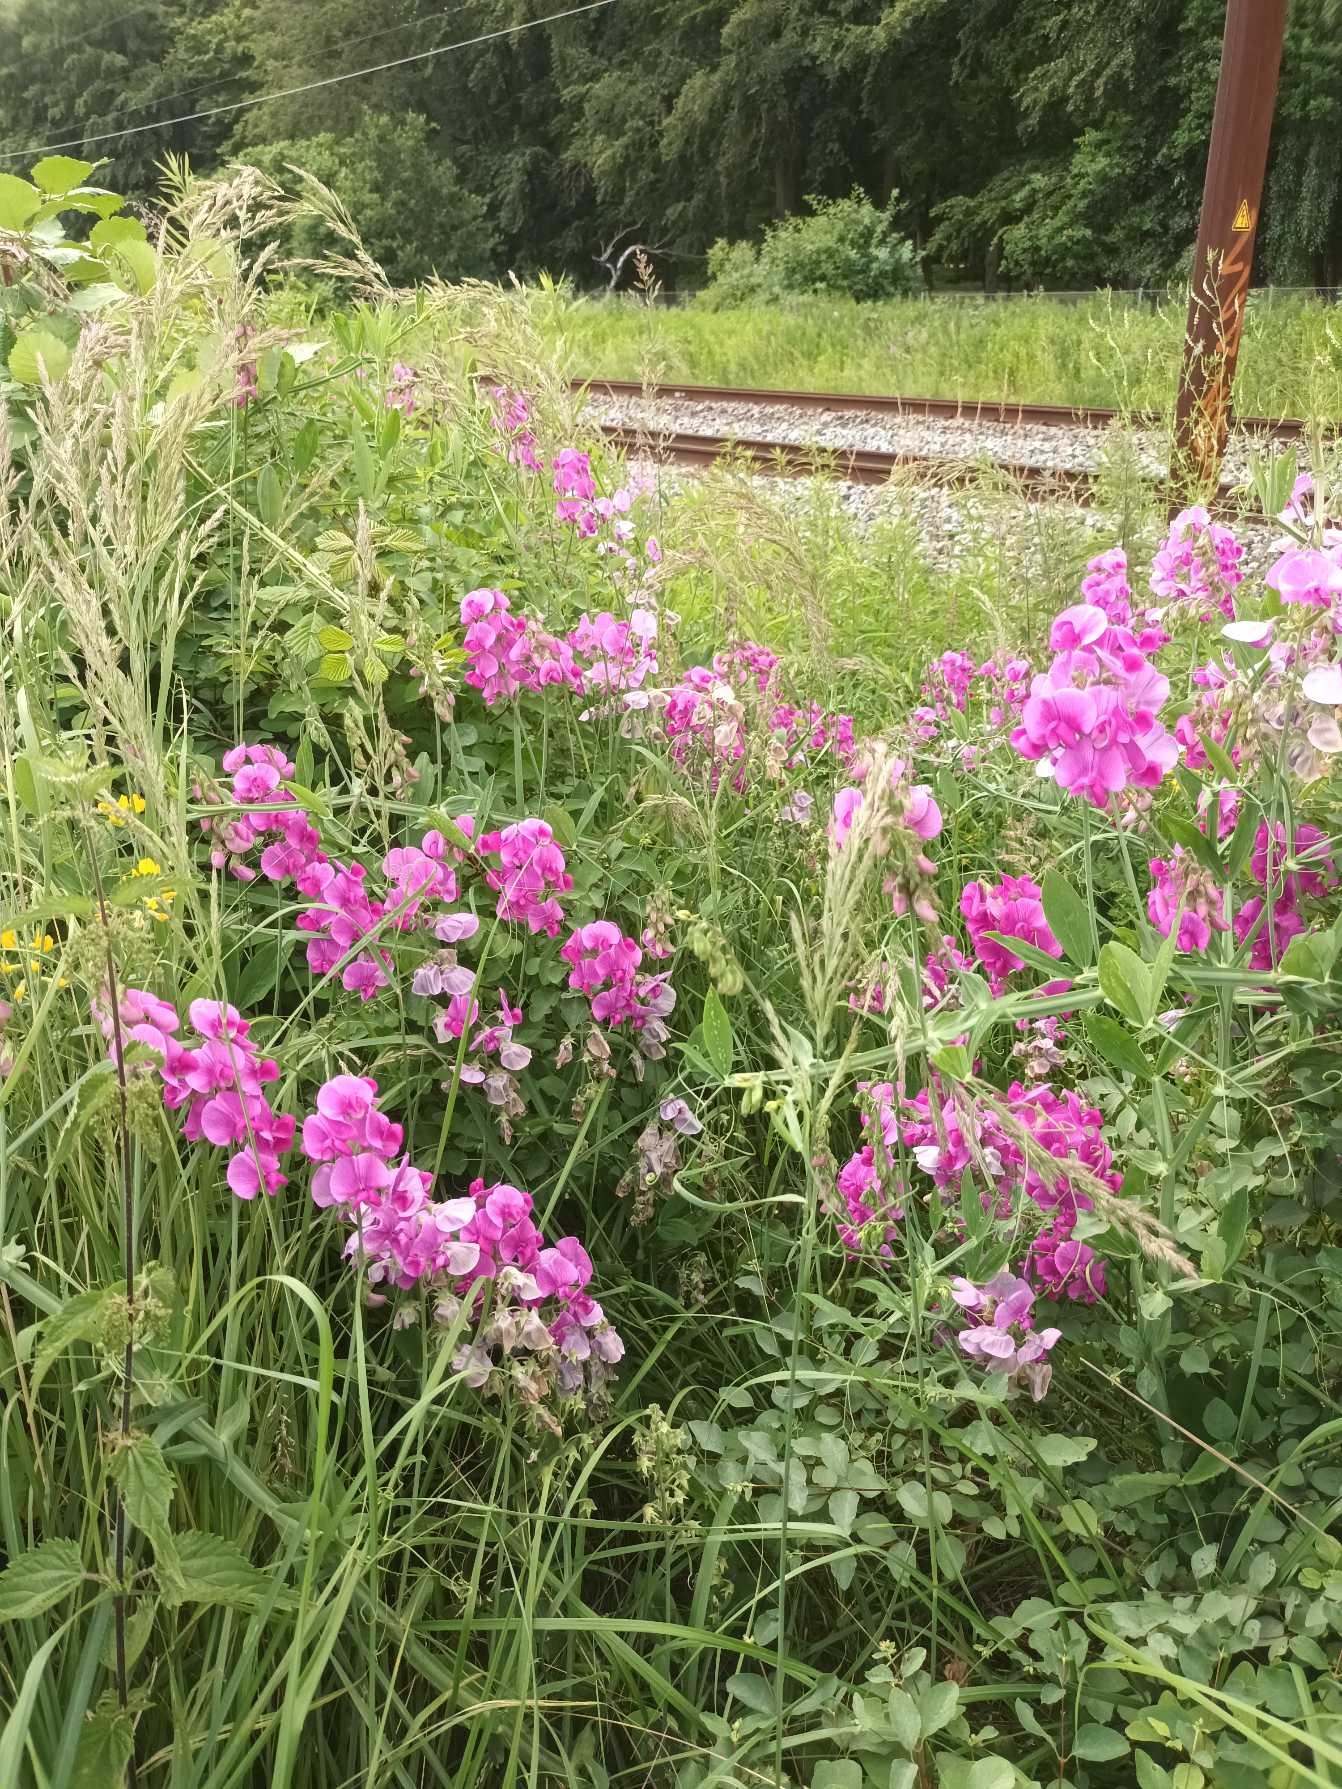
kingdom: Plantae
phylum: Tracheophyta
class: Magnoliopsida
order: Fabales
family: Fabaceae
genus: Lathyrus
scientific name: Lathyrus latifolius
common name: Flerårig ærteblomst
